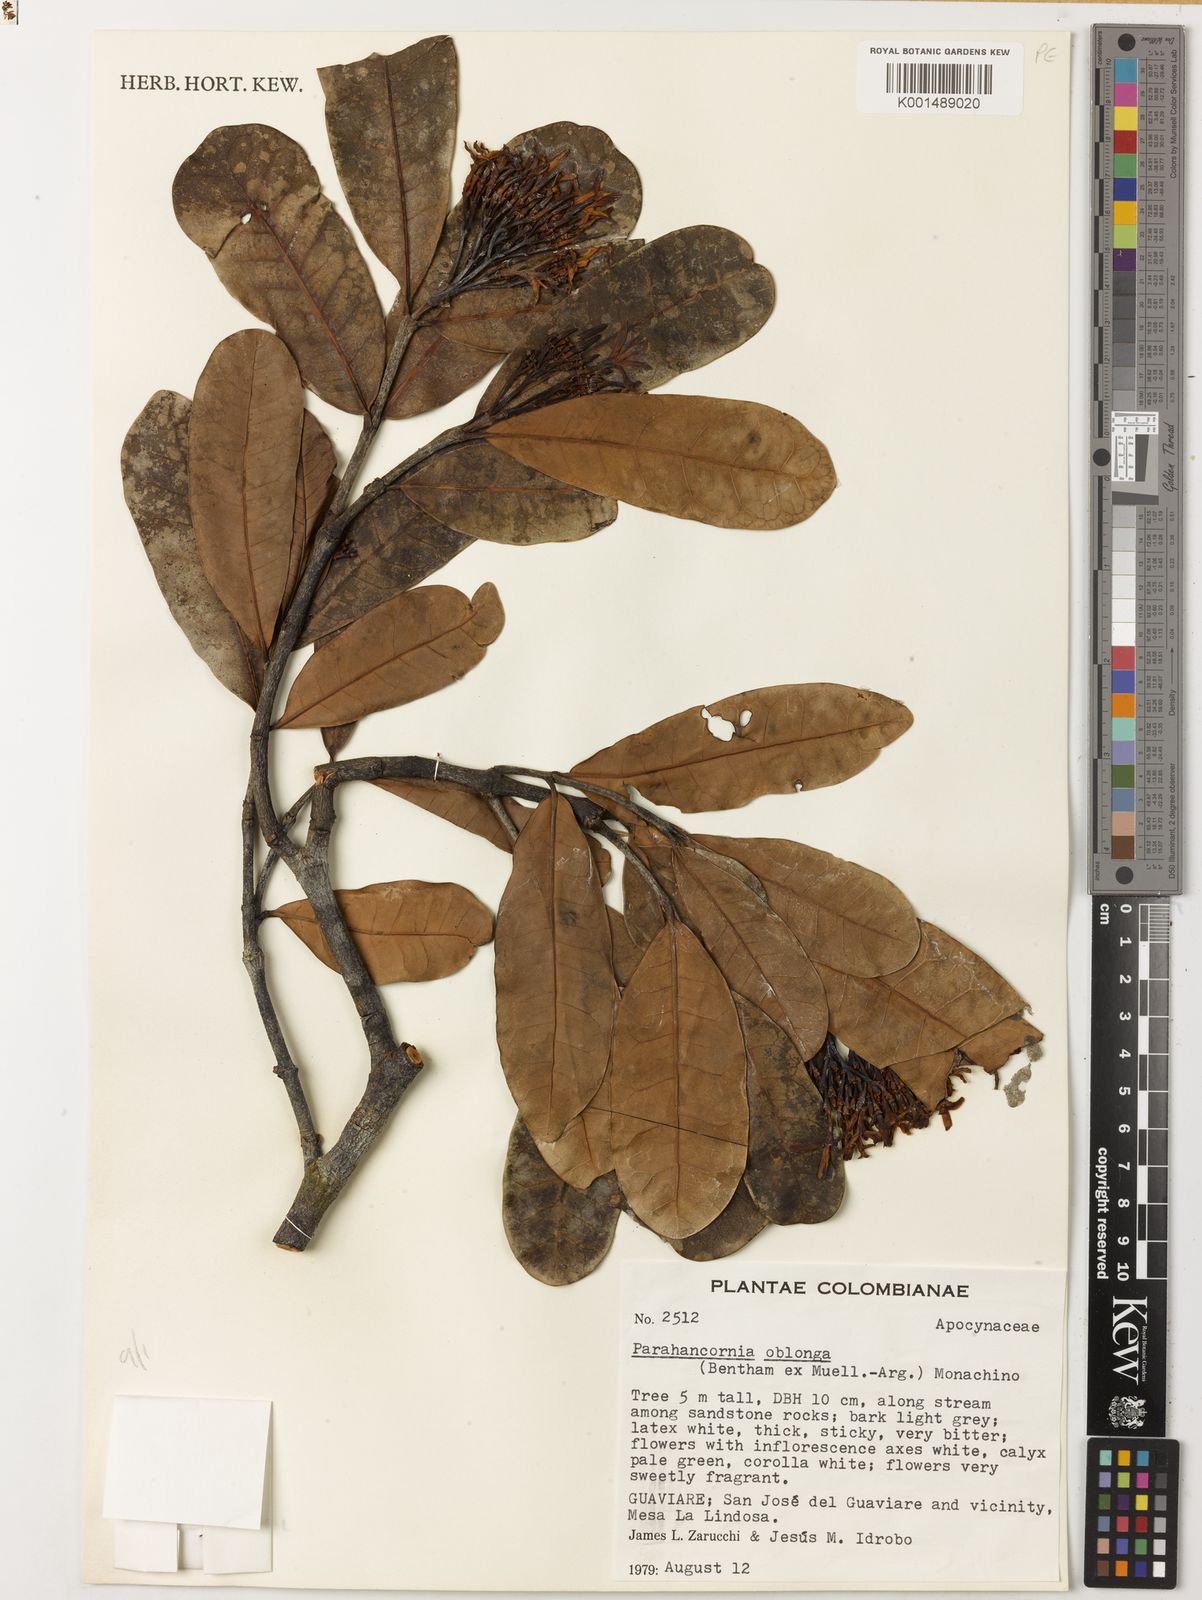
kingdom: Plantae
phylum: Tracheophyta
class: Magnoliopsida
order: Gentianales
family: Apocynaceae
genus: Parahancornia
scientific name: Parahancornia oblonga
